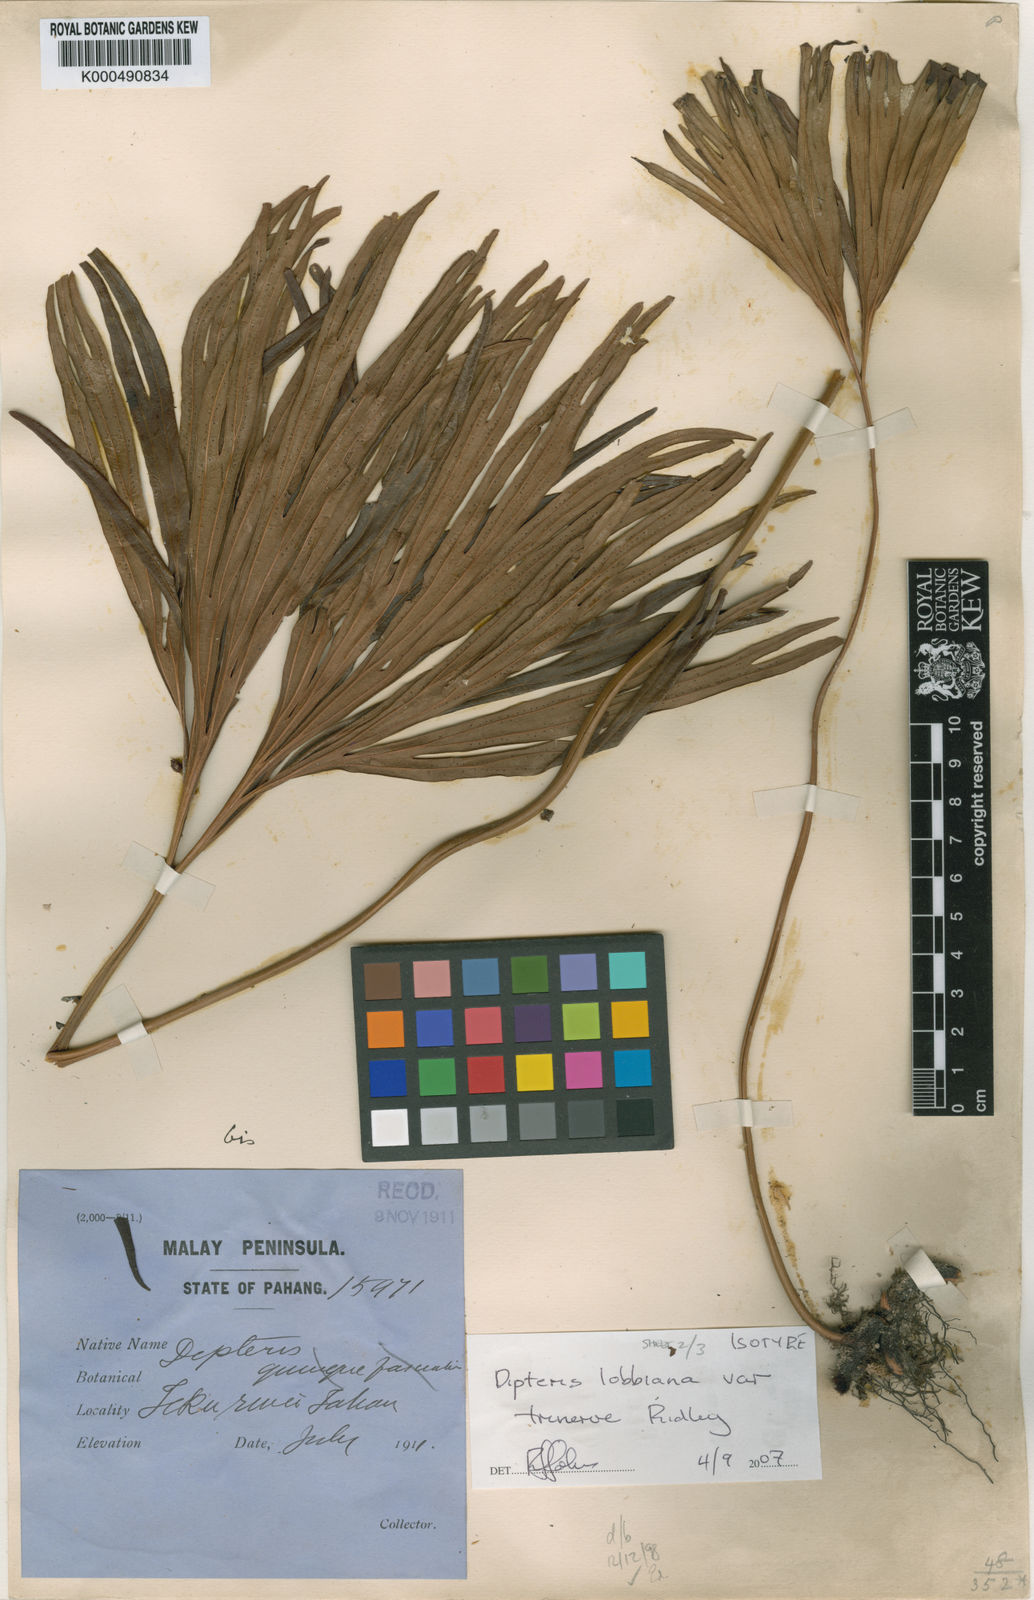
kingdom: Plantae
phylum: Tracheophyta
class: Polypodiopsida
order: Gleicheniales
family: Dipteridaceae
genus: Dipteris
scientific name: Dipteris lobbiana
